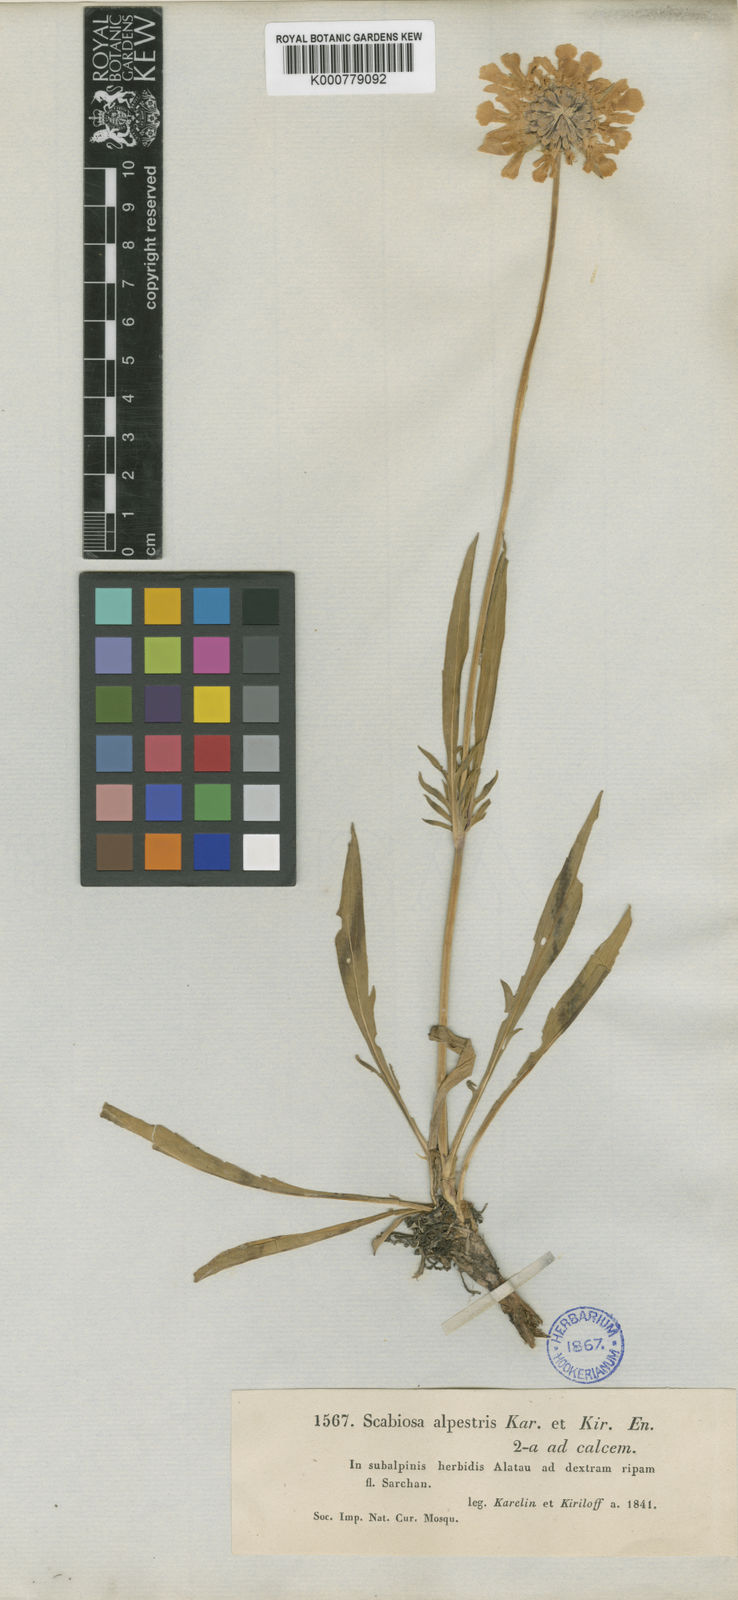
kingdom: Plantae
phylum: Tracheophyta
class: Magnoliopsida
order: Dipsacales
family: Caprifoliaceae
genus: Lomelosia
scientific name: Lomelosia alpestris
